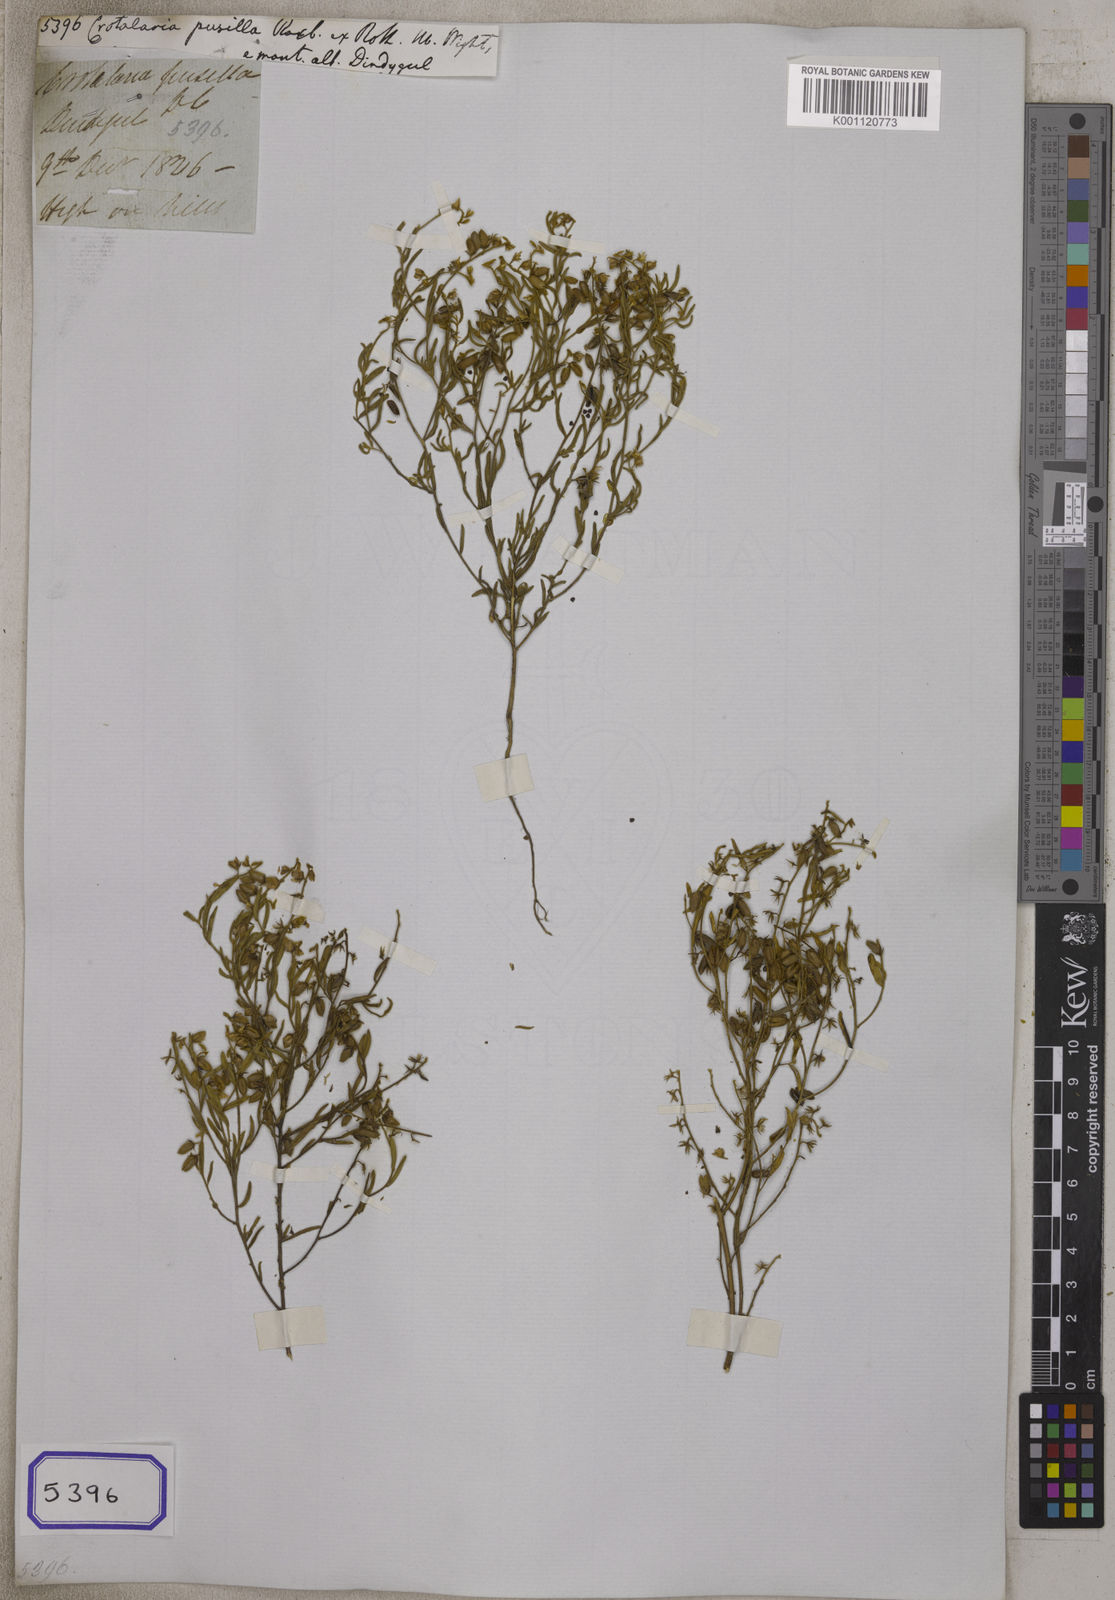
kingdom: Plantae
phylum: Tracheophyta
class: Magnoliopsida
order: Fabales
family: Fabaceae
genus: Crotalaria
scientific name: Crotalaria
